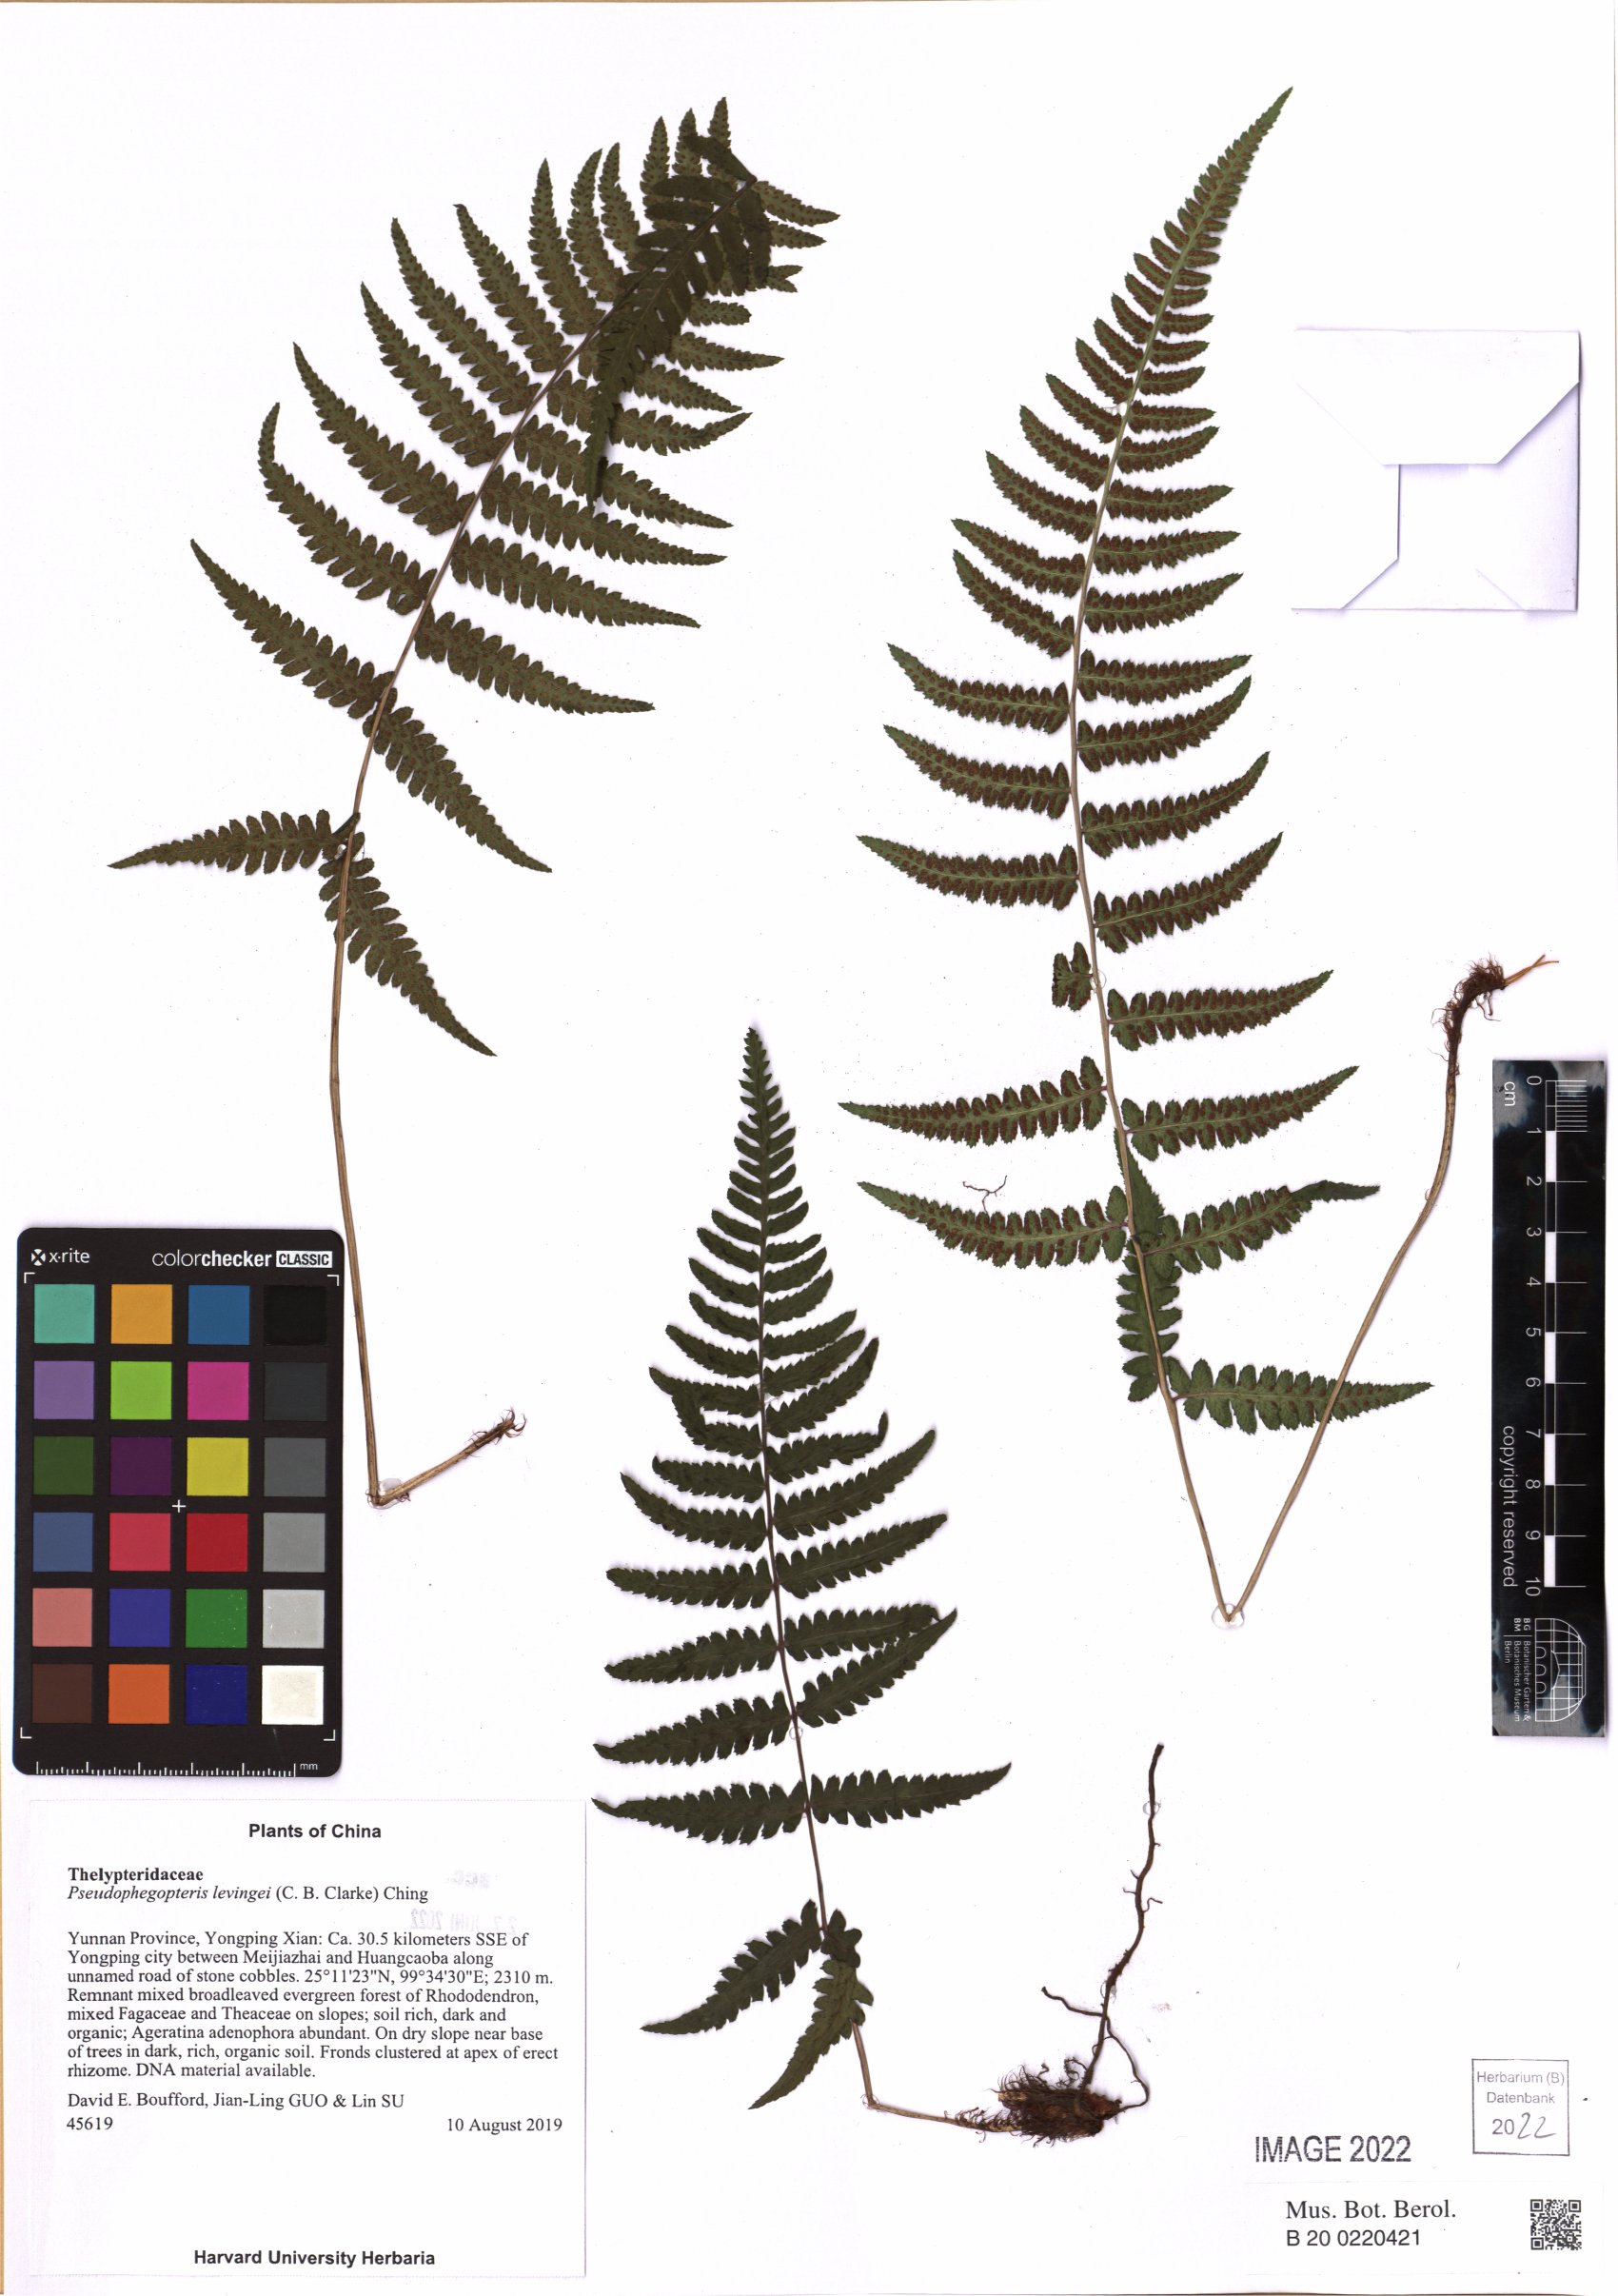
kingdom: Plantae
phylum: Tracheophyta
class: Polypodiopsida
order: Polypodiales
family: Thelypteridaceae
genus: Pseudophegopteris
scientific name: Pseudophegopteris levingei
